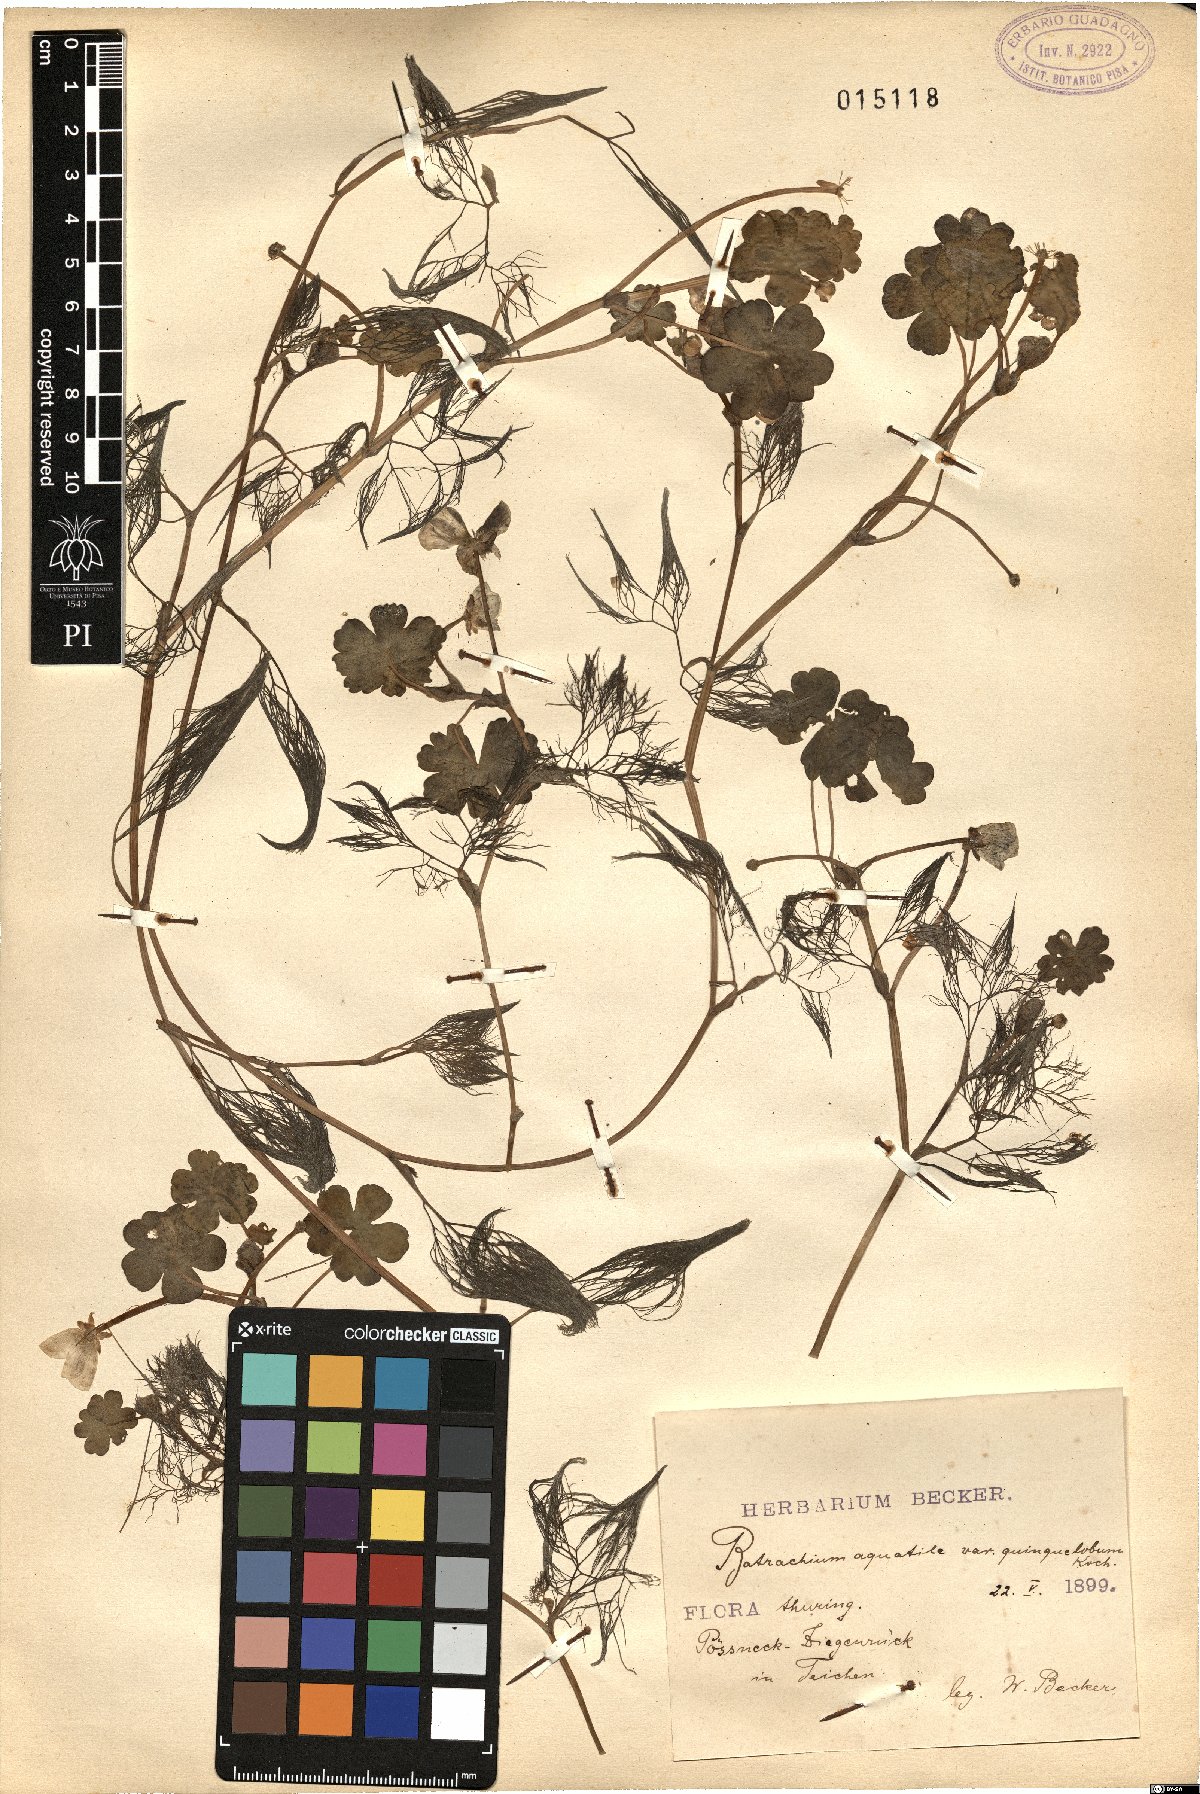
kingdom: Plantae
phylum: Tracheophyta
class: Magnoliopsida
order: Ranunculales
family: Ranunculaceae
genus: Ranunculus
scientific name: Ranunculus peltatus
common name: Pond water-crowfoot
